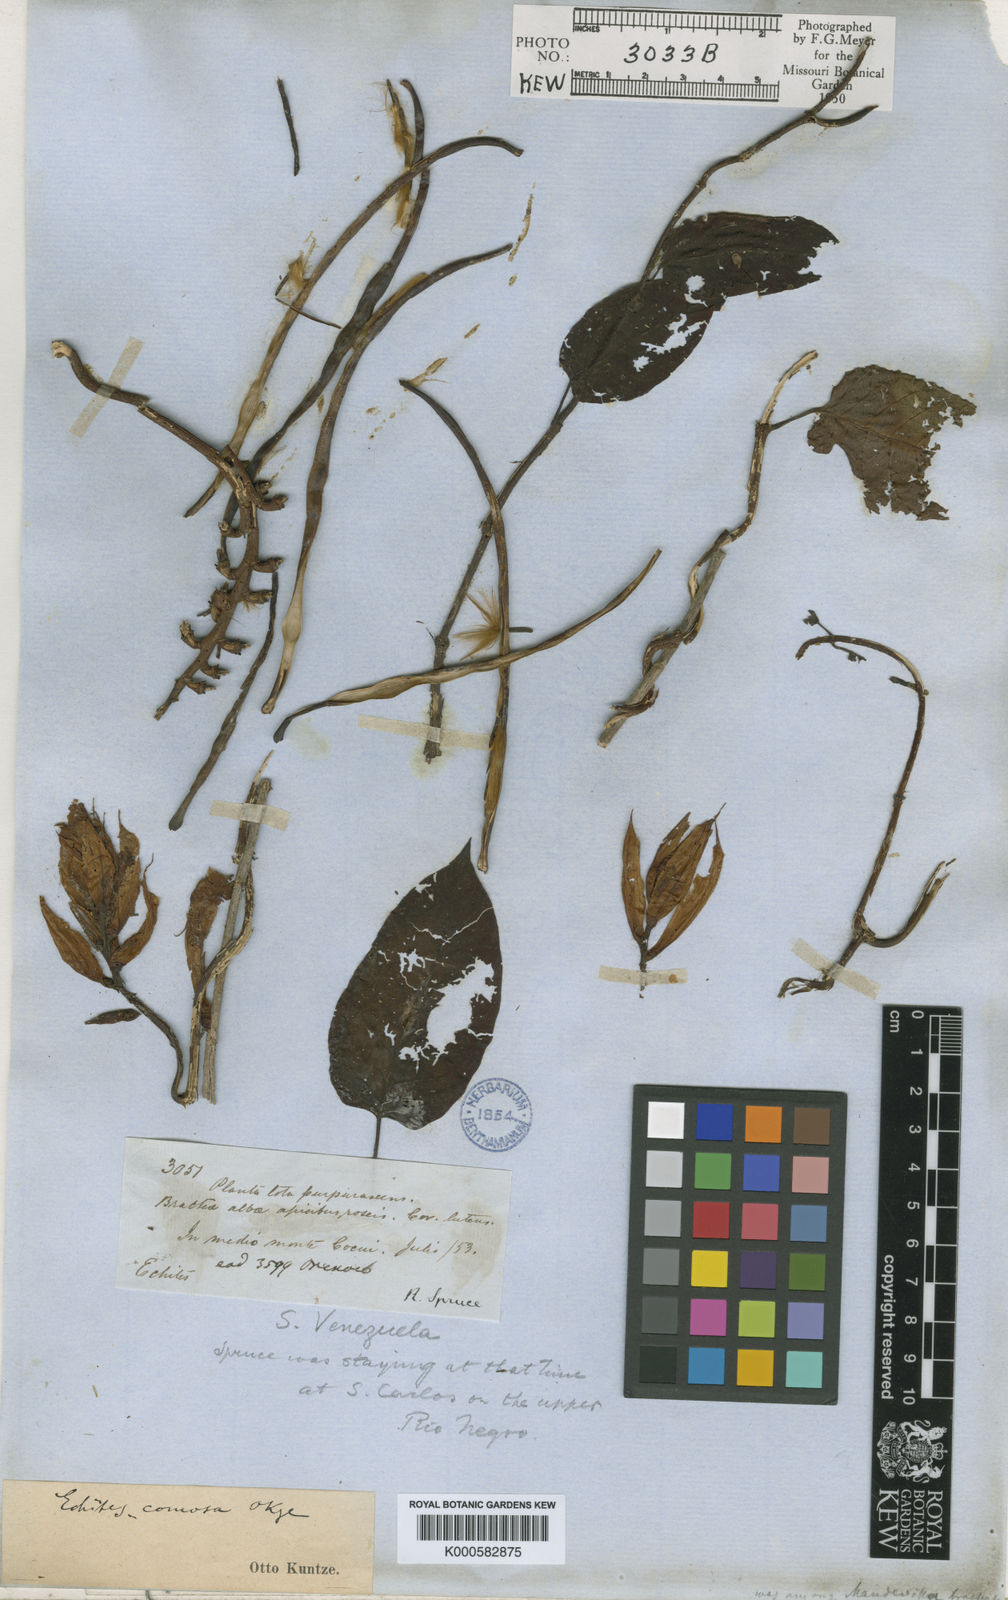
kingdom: Plantae
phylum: Tracheophyta
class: Magnoliopsida
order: Gentianales
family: Apocynaceae
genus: Mandevilla
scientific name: Mandevilla villosa
